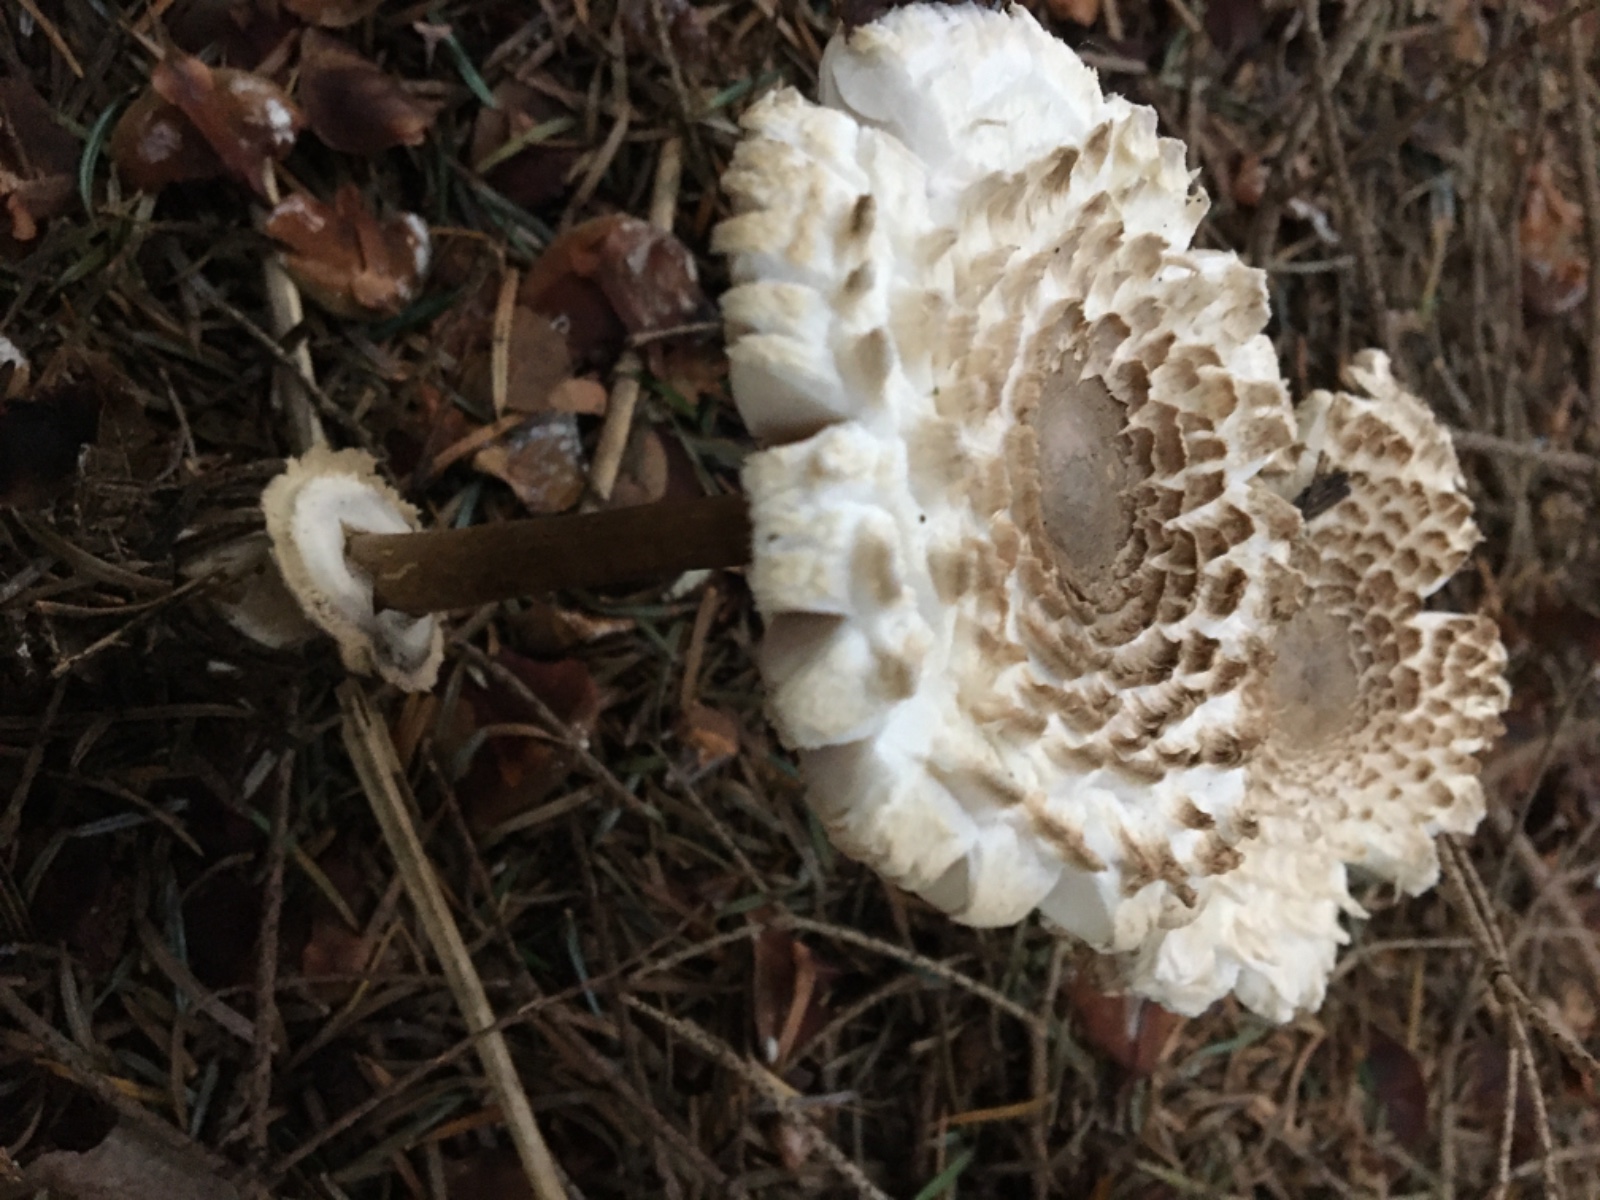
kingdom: Fungi
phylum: Basidiomycota
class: Agaricomycetes
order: Agaricales
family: Agaricaceae
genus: Leucoagaricus
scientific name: Leucoagaricus nympharum
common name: gran-silkehat
